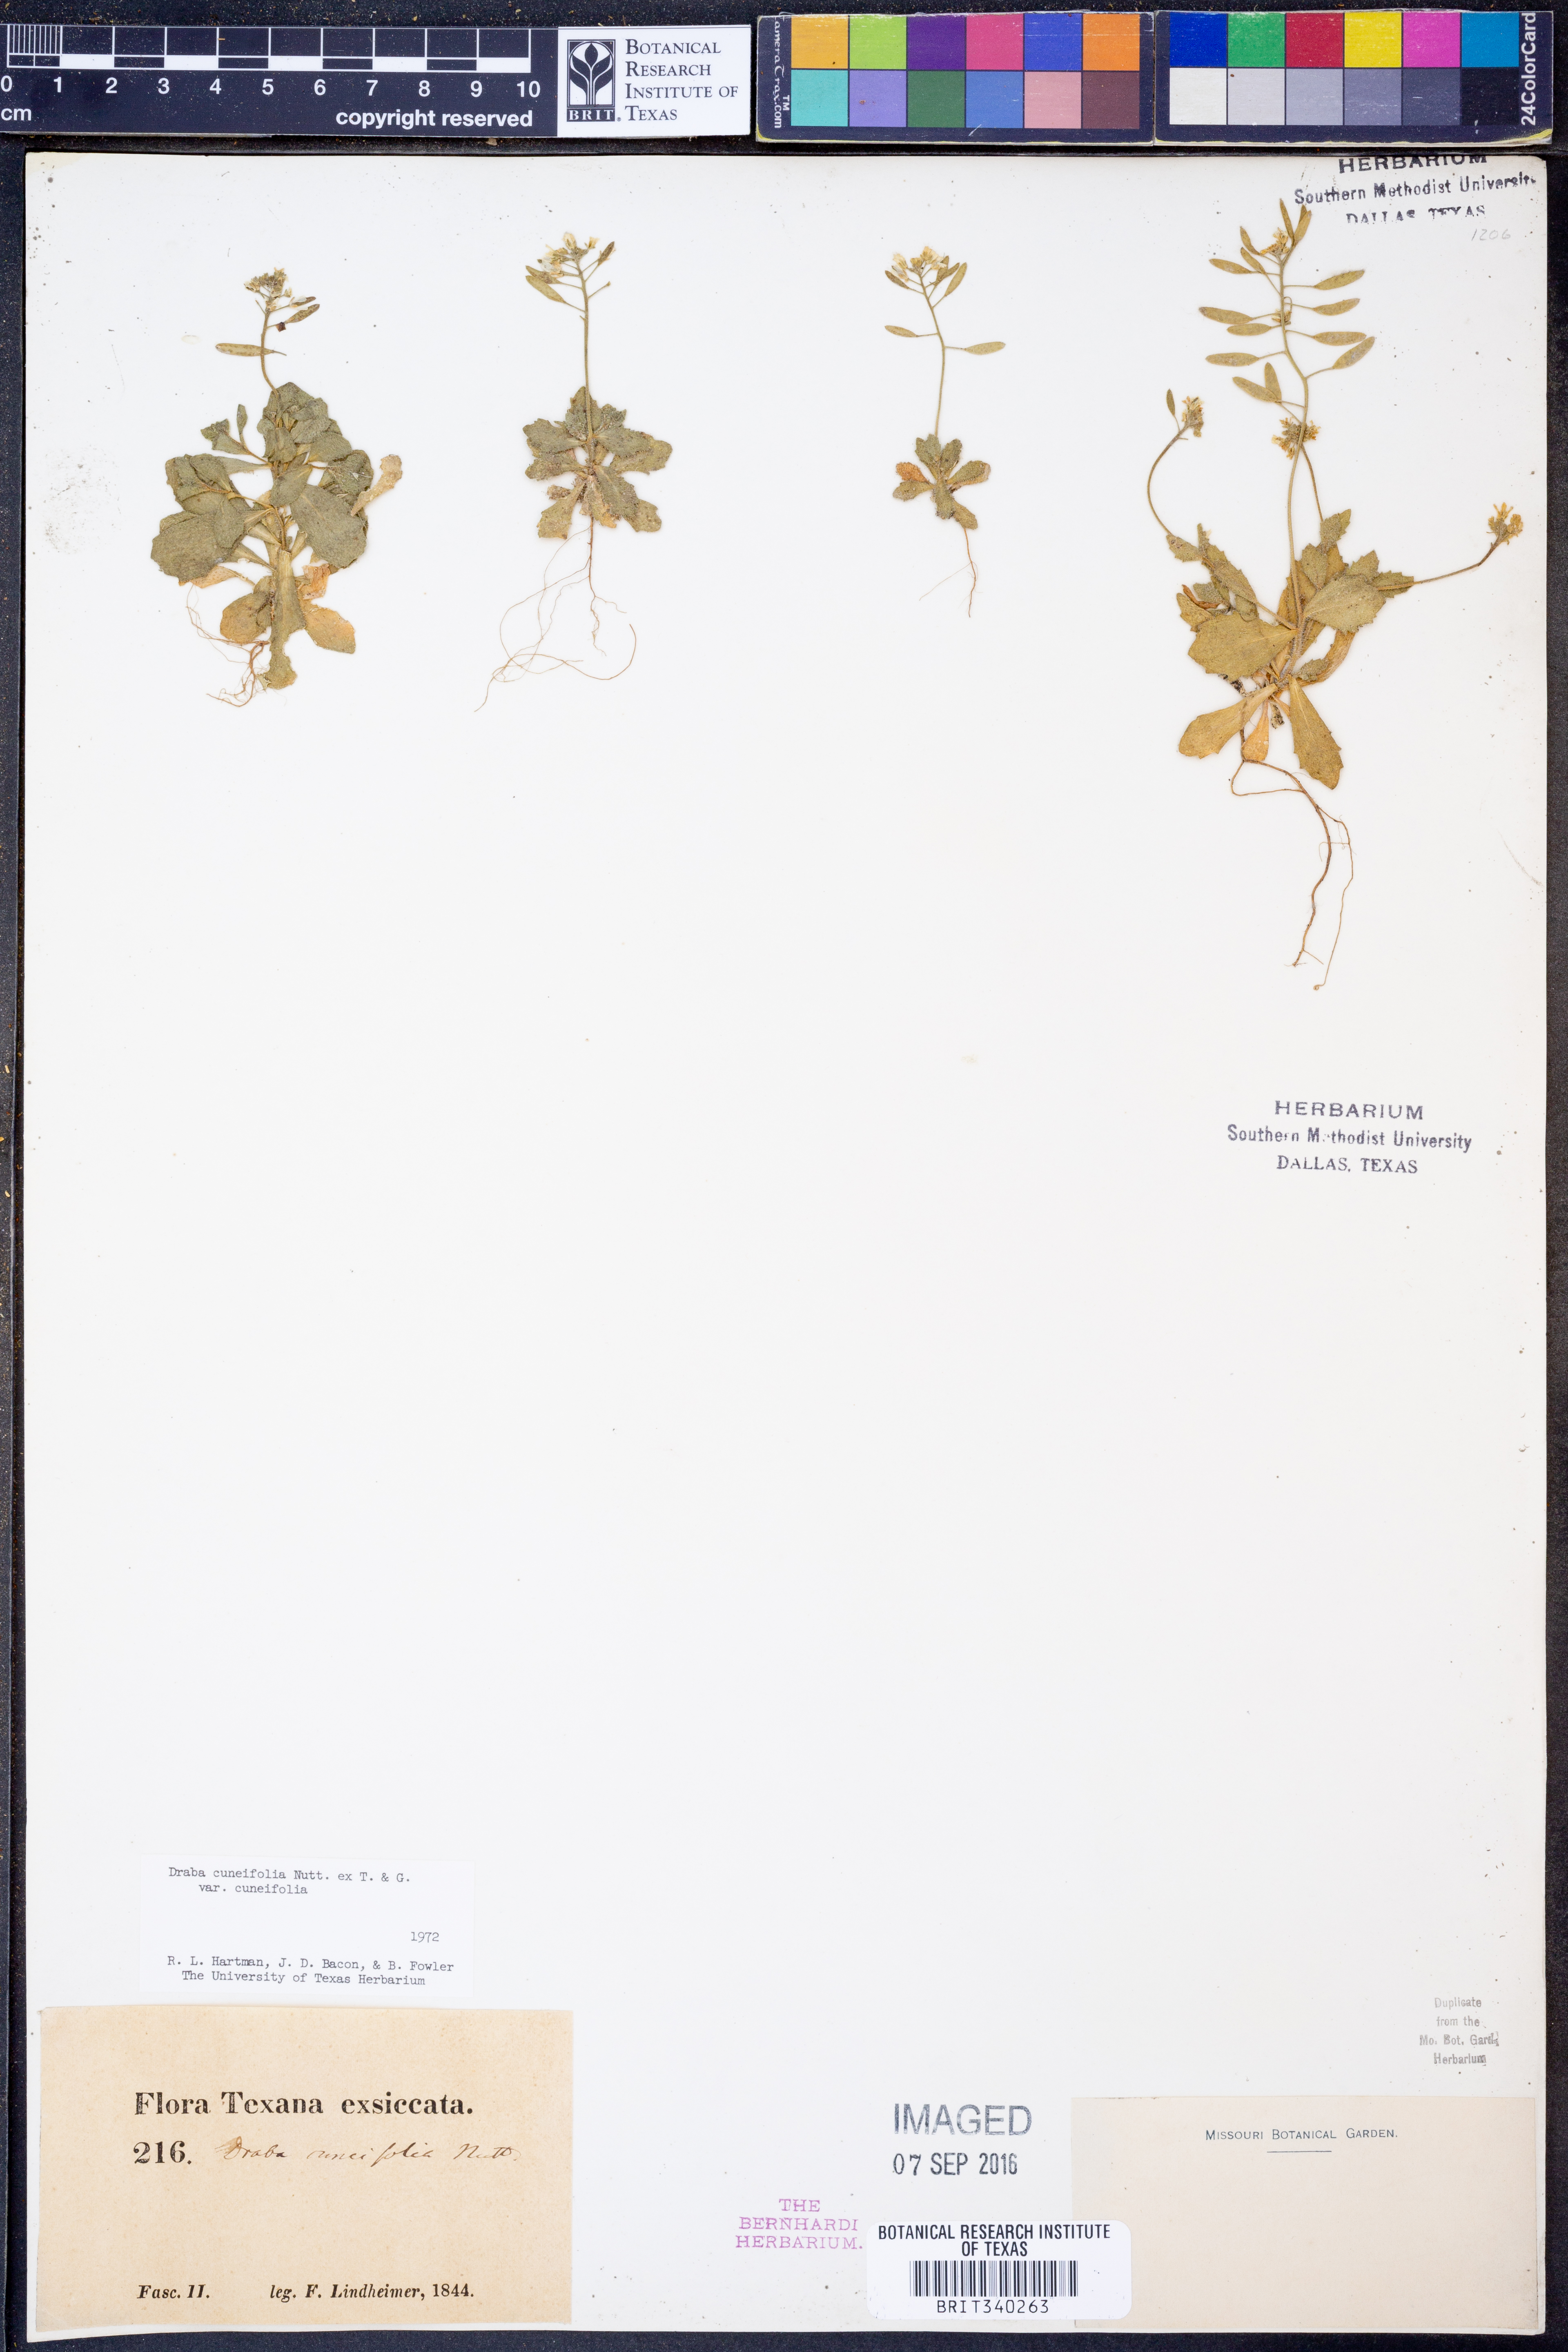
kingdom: Plantae
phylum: Tracheophyta
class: Magnoliopsida
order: Brassicales
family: Brassicaceae
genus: Tomostima
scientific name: Tomostima cuneifolia
